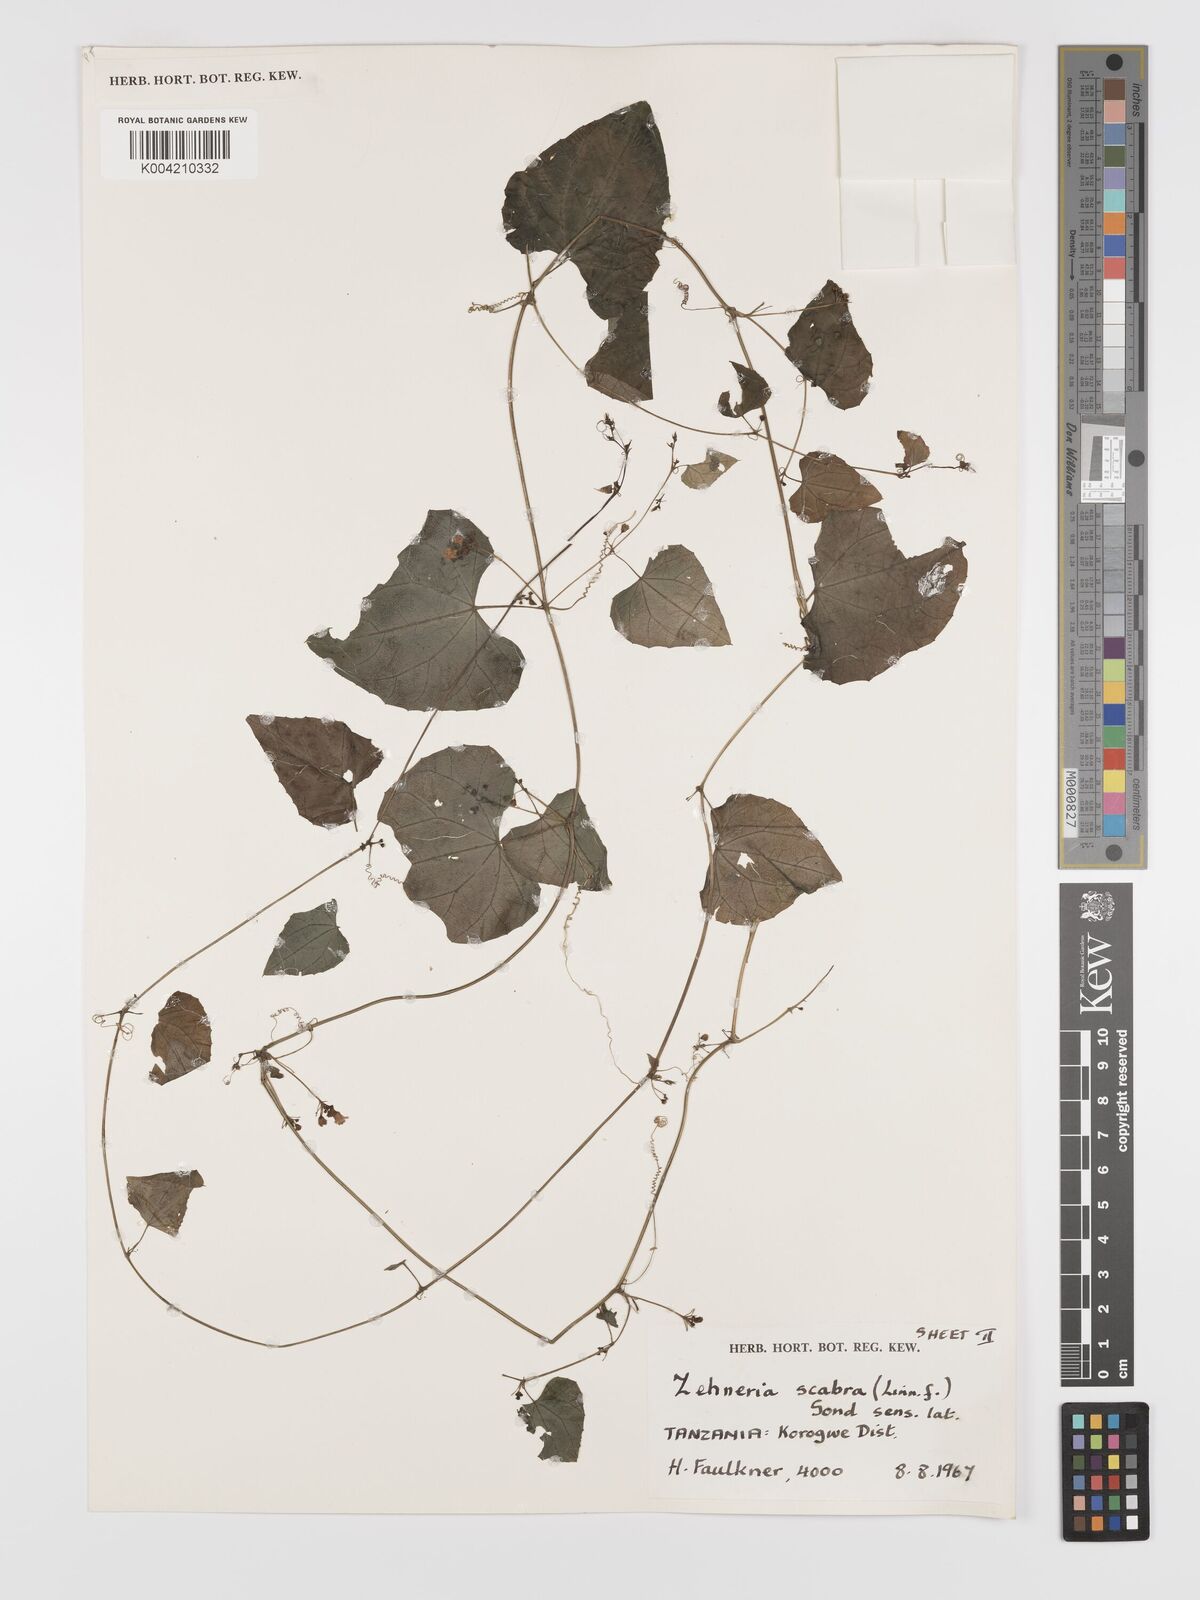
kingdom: Plantae
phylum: Tracheophyta
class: Magnoliopsida
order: Cucurbitales
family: Cucurbitaceae
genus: Zehneria
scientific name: Zehneria emirnensis
